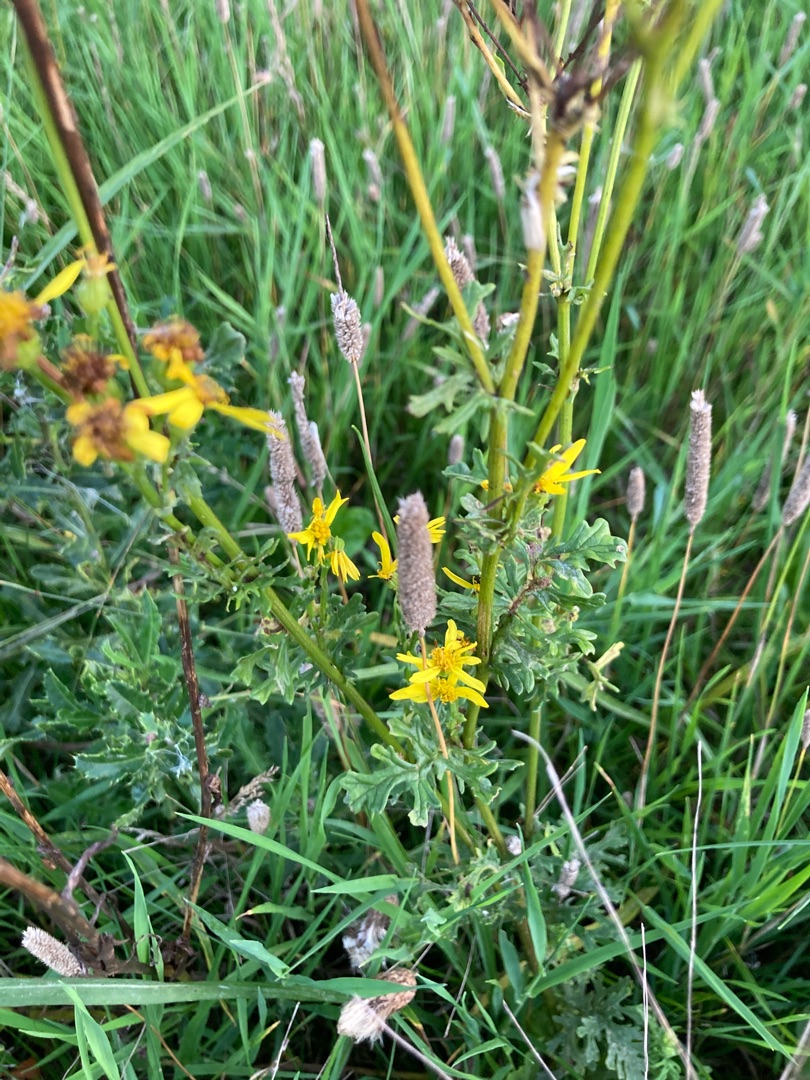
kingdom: Plantae
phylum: Tracheophyta
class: Magnoliopsida
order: Asterales
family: Asteraceae
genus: Jacobaea
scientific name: Jacobaea vulgaris
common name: Eng-brandbæger
